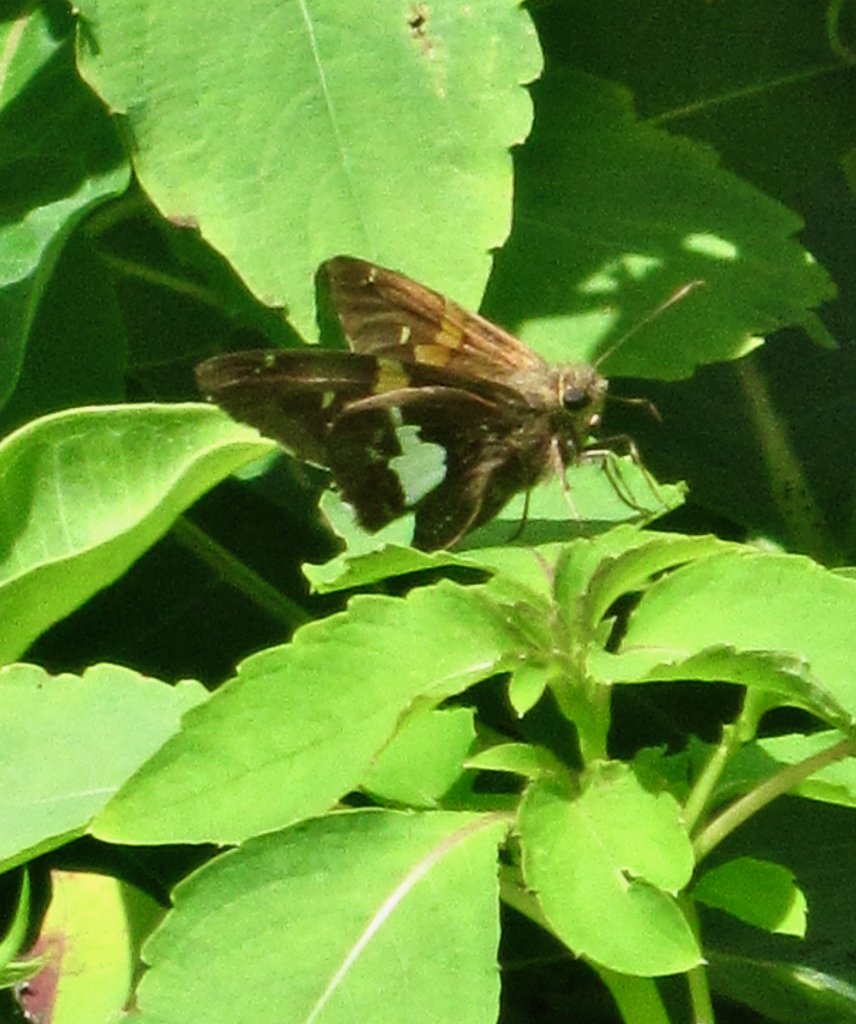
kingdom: Animalia
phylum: Arthropoda
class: Insecta
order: Lepidoptera
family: Hesperiidae
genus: Epargyreus
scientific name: Epargyreus clarus
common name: Silver-spotted Skipper
